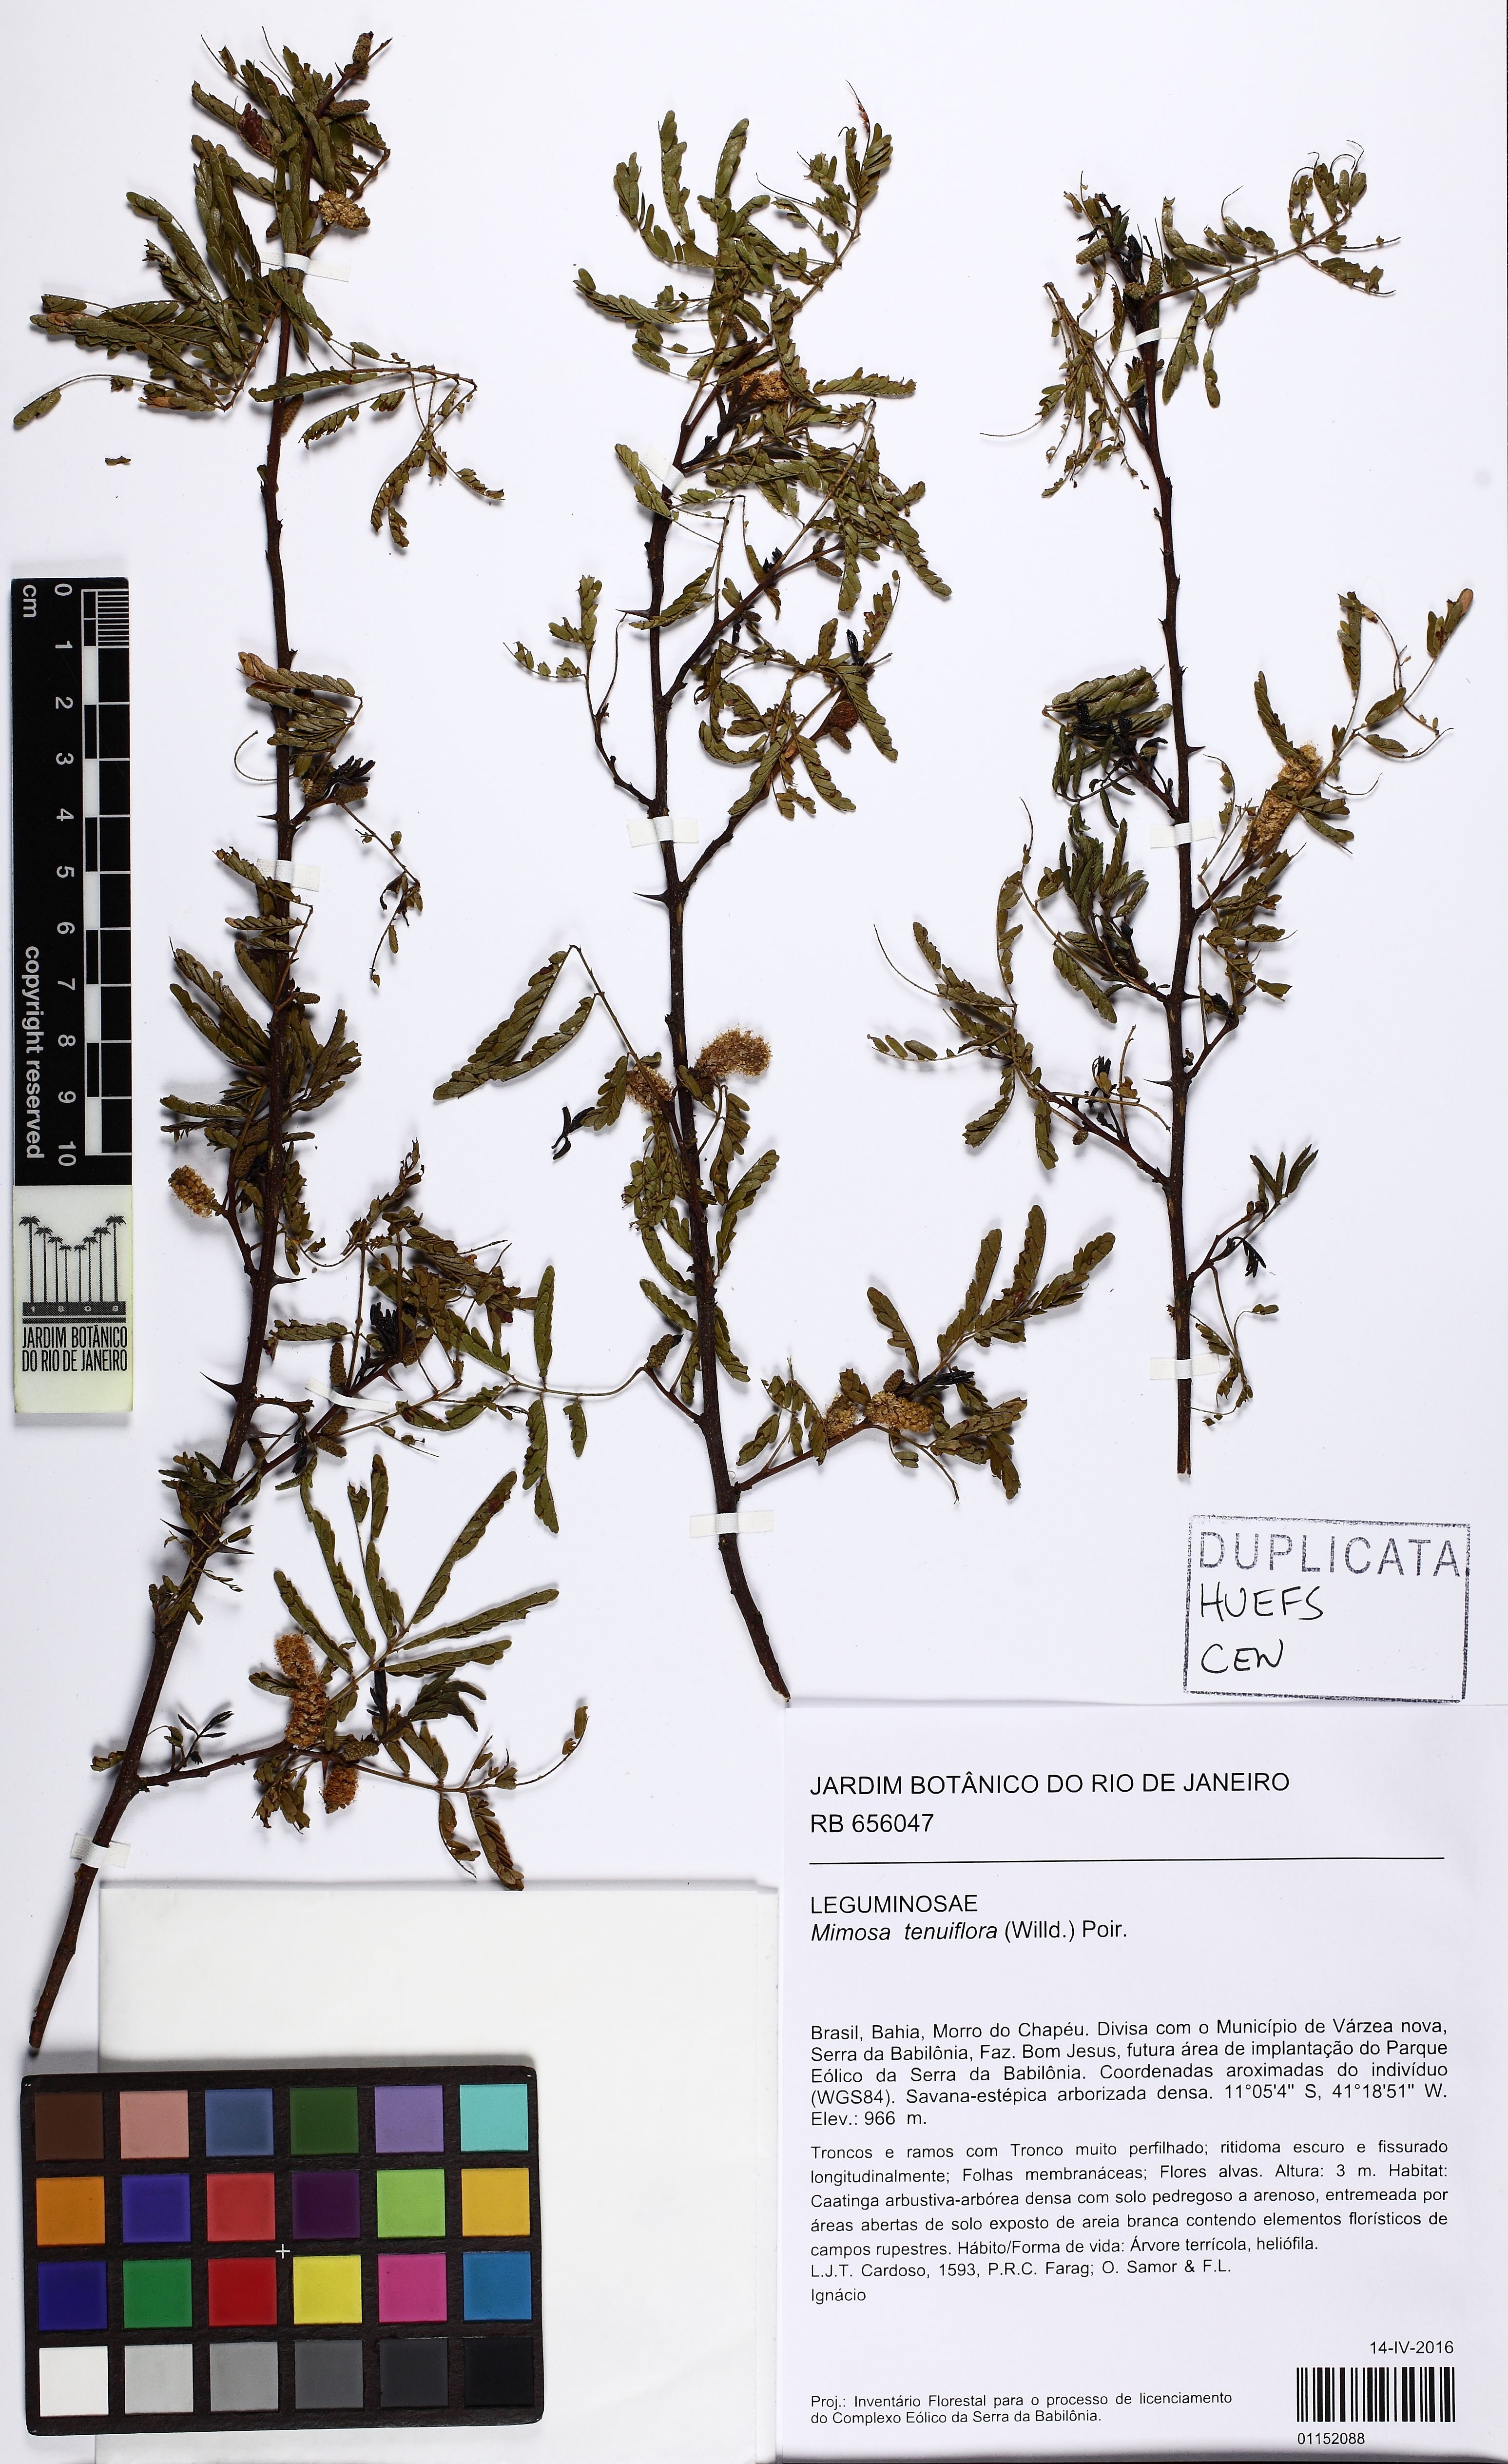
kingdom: Plantae
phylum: Tracheophyta
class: Magnoliopsida
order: Fabales
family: Fabaceae
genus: Mimosa
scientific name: Mimosa tenuiflora
